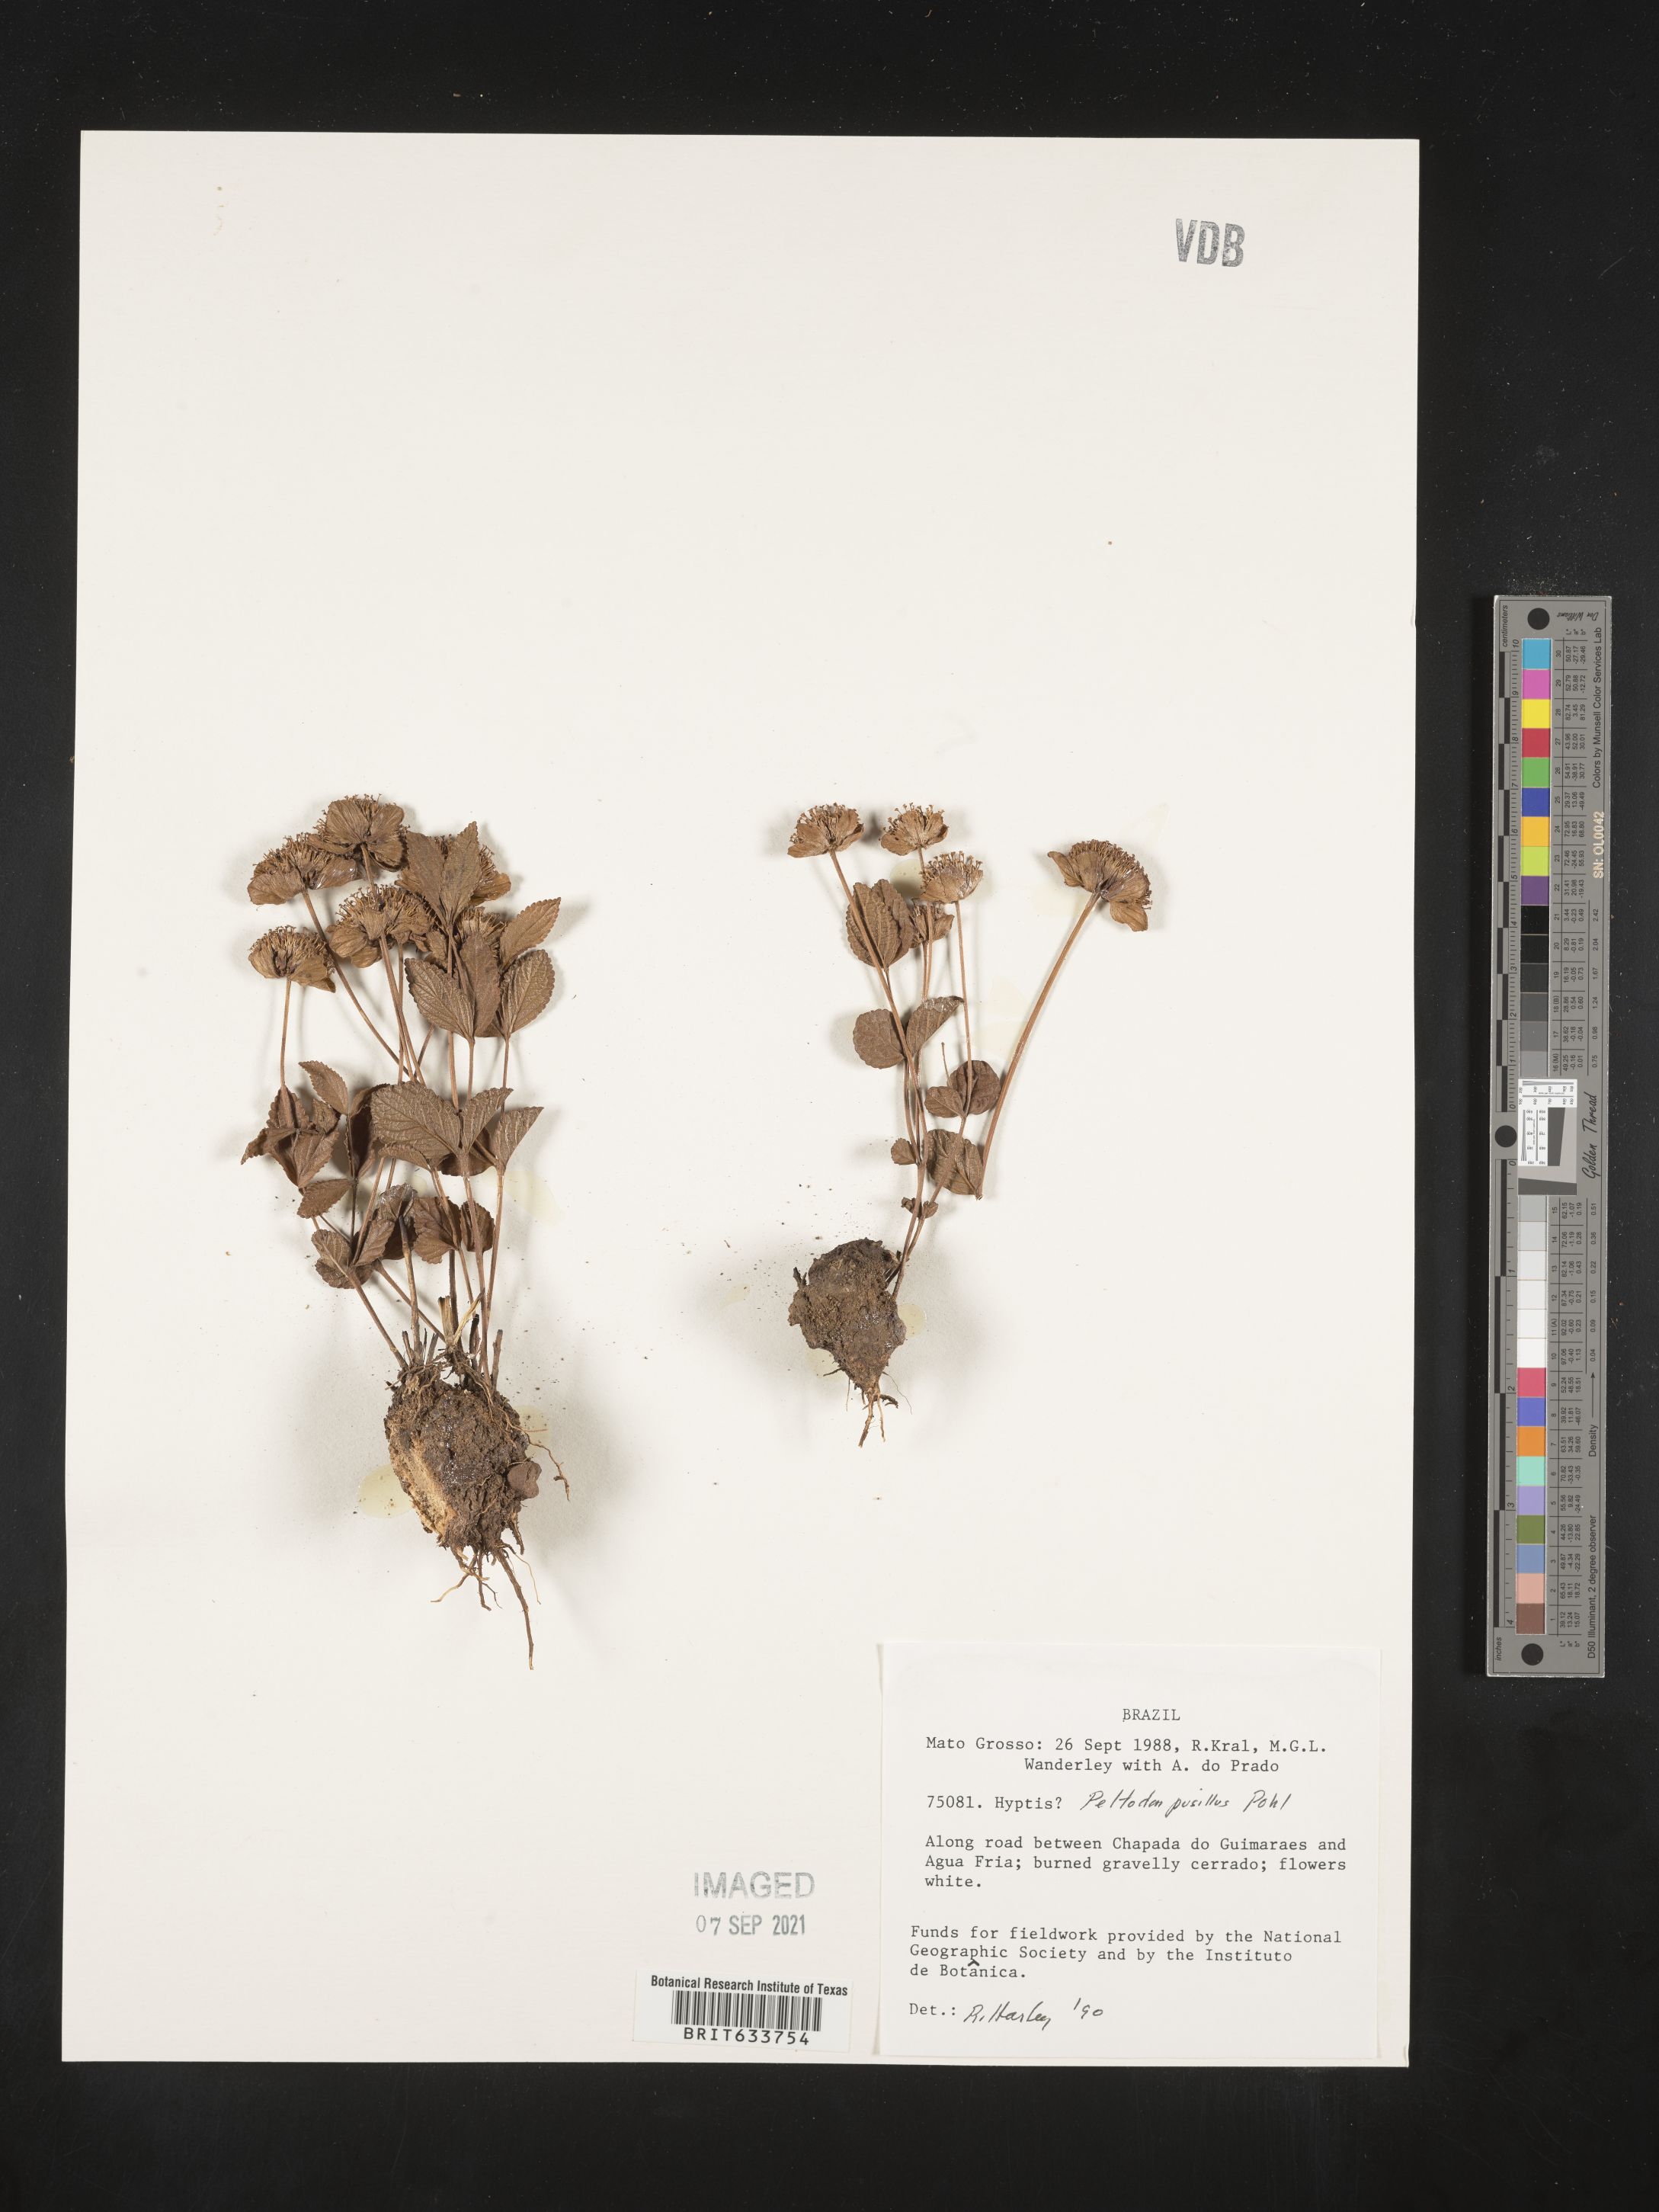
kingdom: Plantae
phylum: Tracheophyta
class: Magnoliopsida
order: Lamiales
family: Lamiaceae
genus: Hyptis
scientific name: Hyptis
